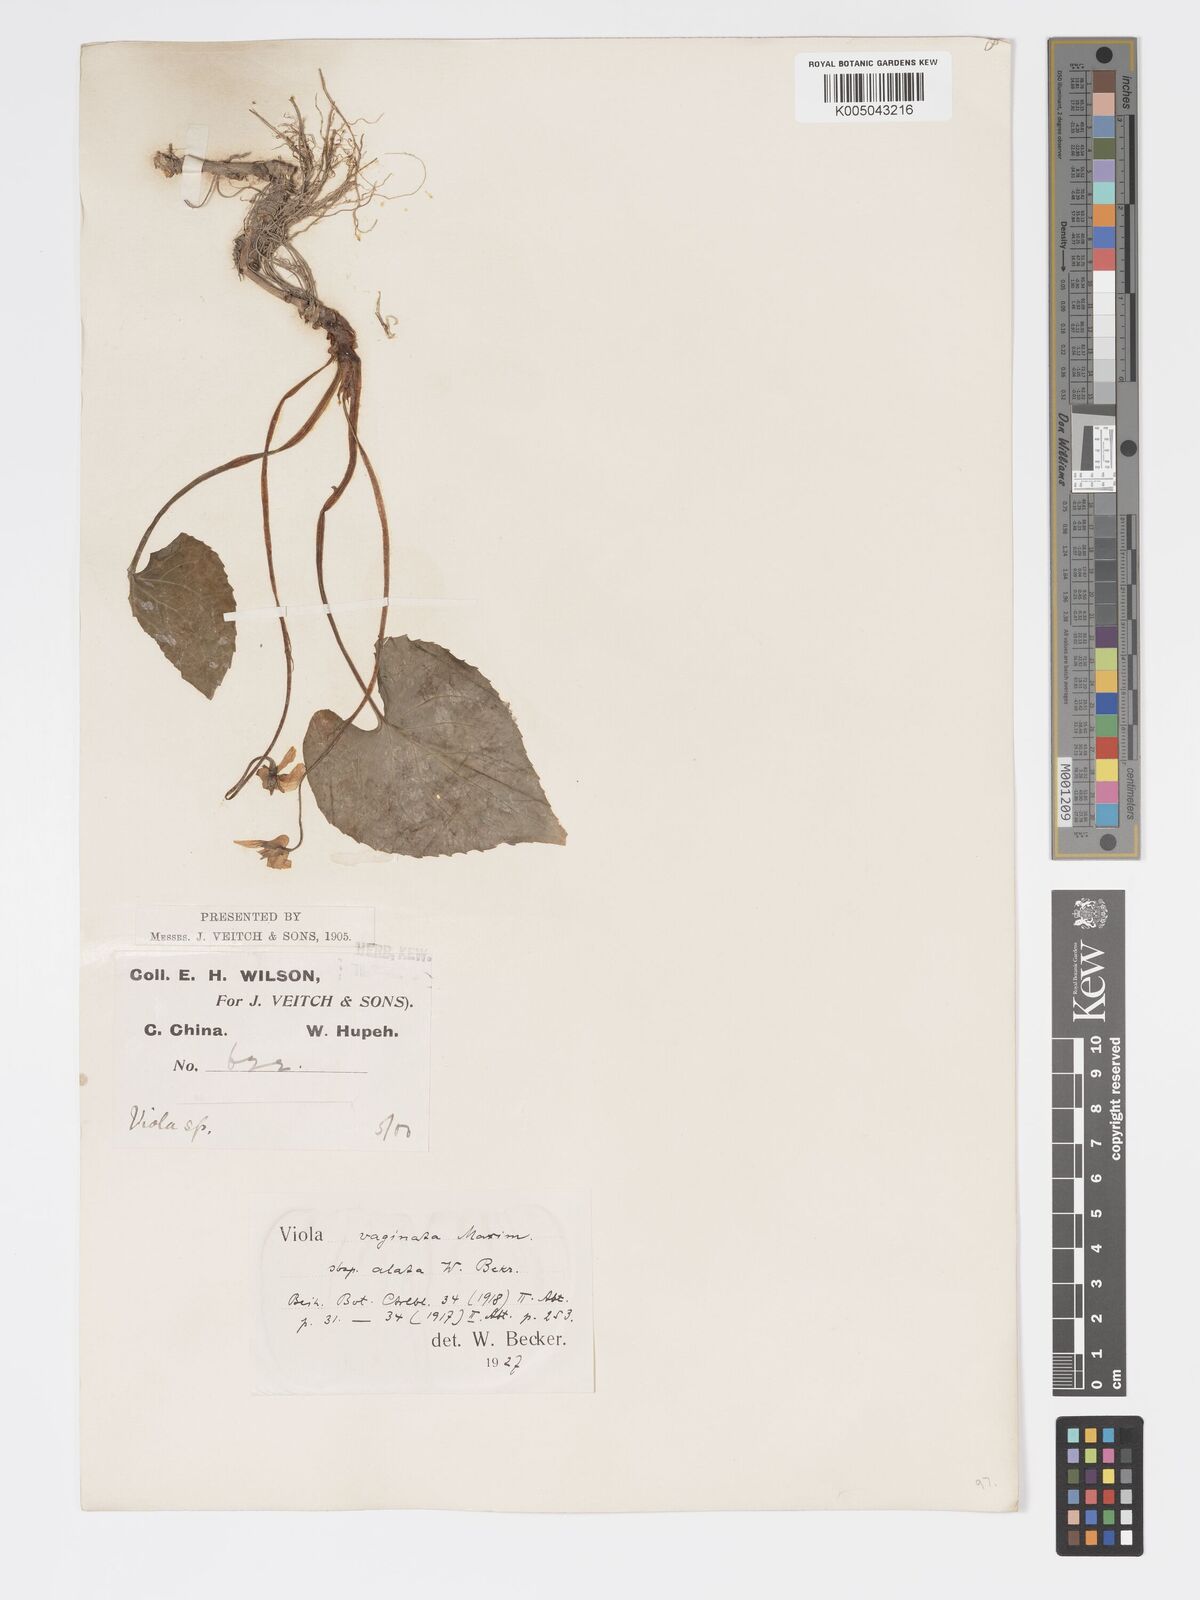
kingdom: Plantae
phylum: Tracheophyta
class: Magnoliopsida
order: Malpighiales
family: Violaceae
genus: Viola
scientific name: Viola vaginata
